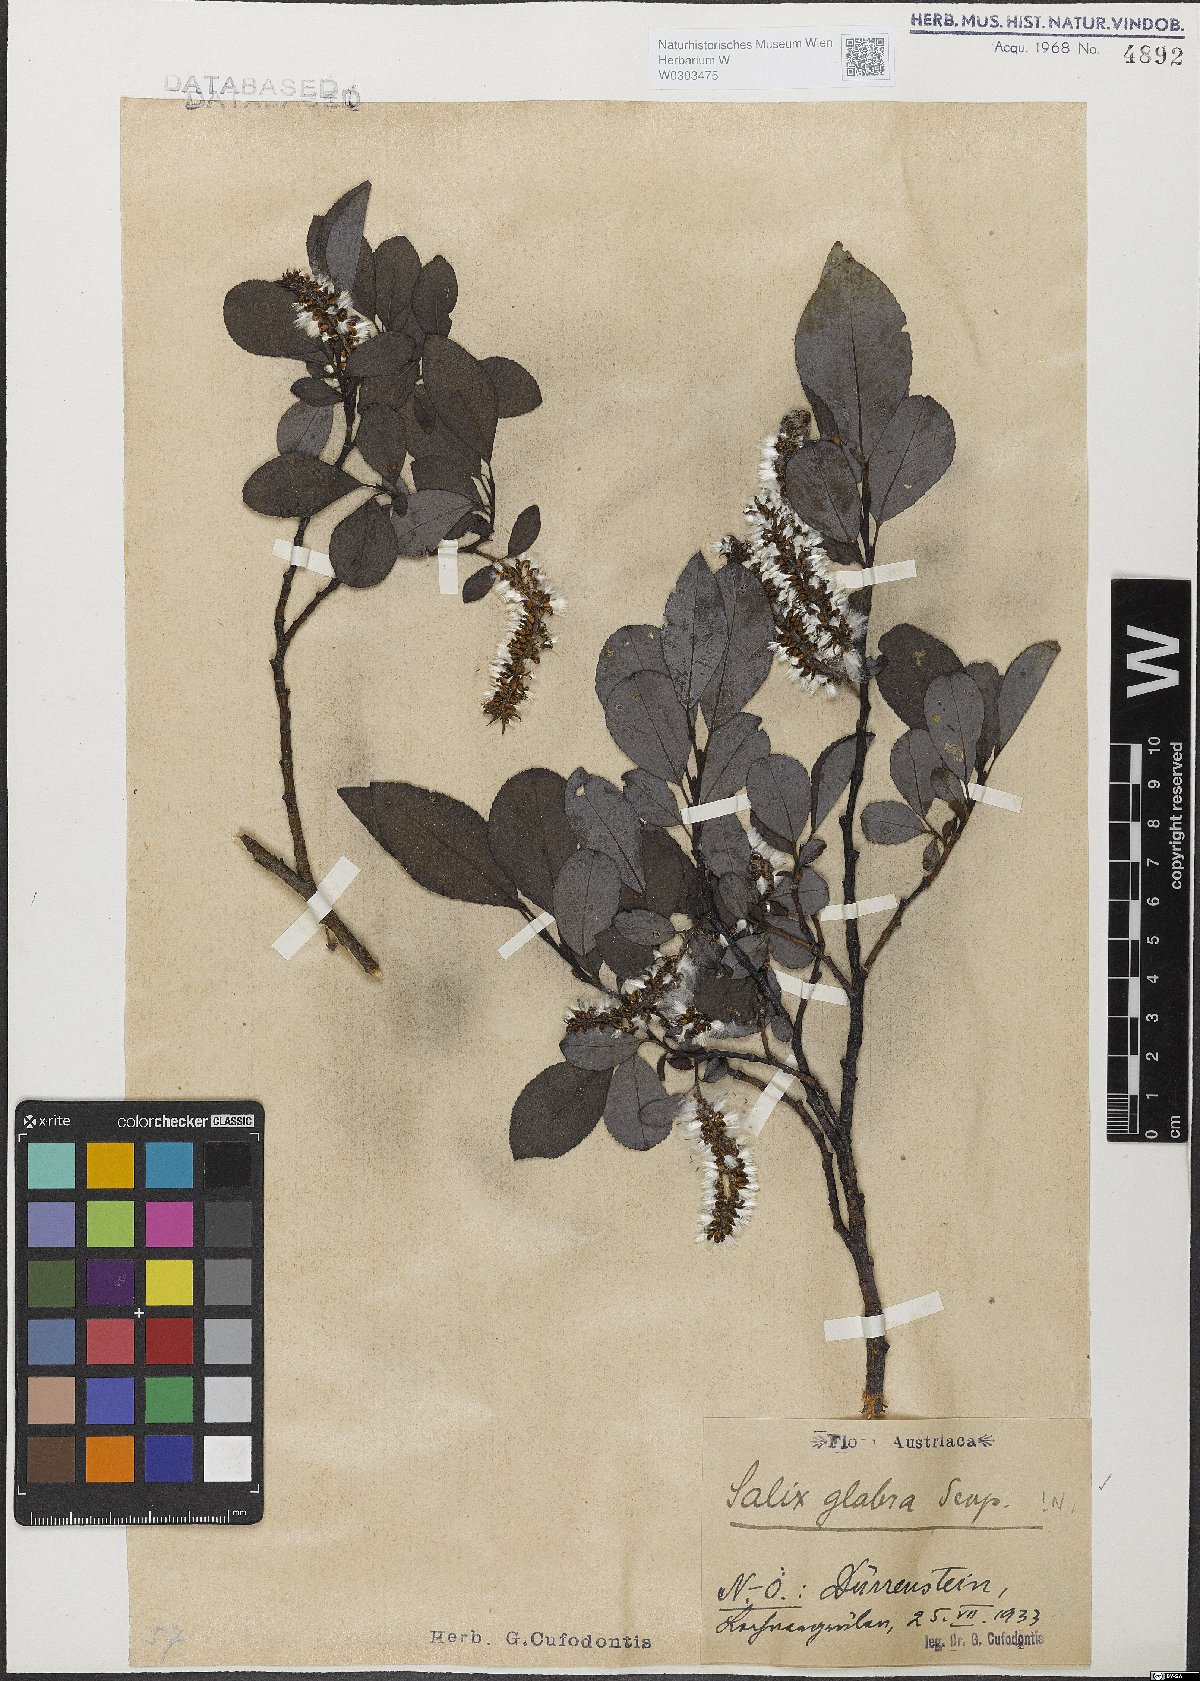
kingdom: Plantae
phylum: Tracheophyta
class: Magnoliopsida
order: Malpighiales
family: Salicaceae
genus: Salix
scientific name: Salix glabra
